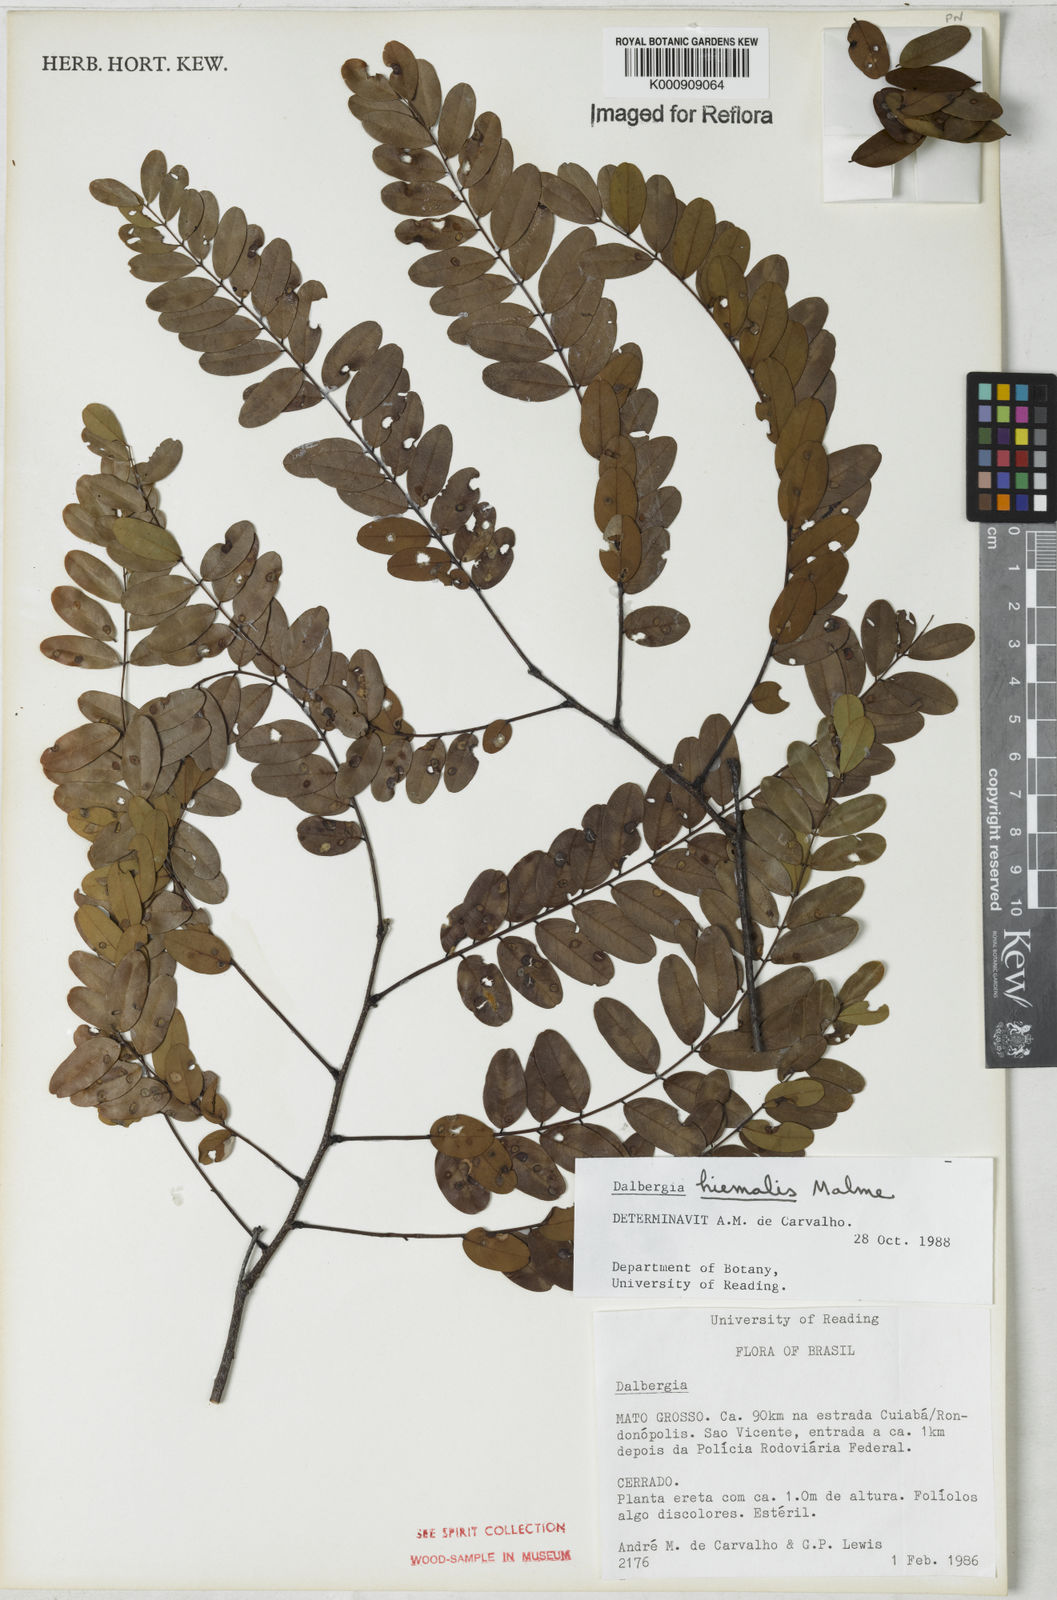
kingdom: Plantae
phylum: Tracheophyta
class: Magnoliopsida
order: Fabales
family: Fabaceae
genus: Dalbergia
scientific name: Dalbergia hiemalis
